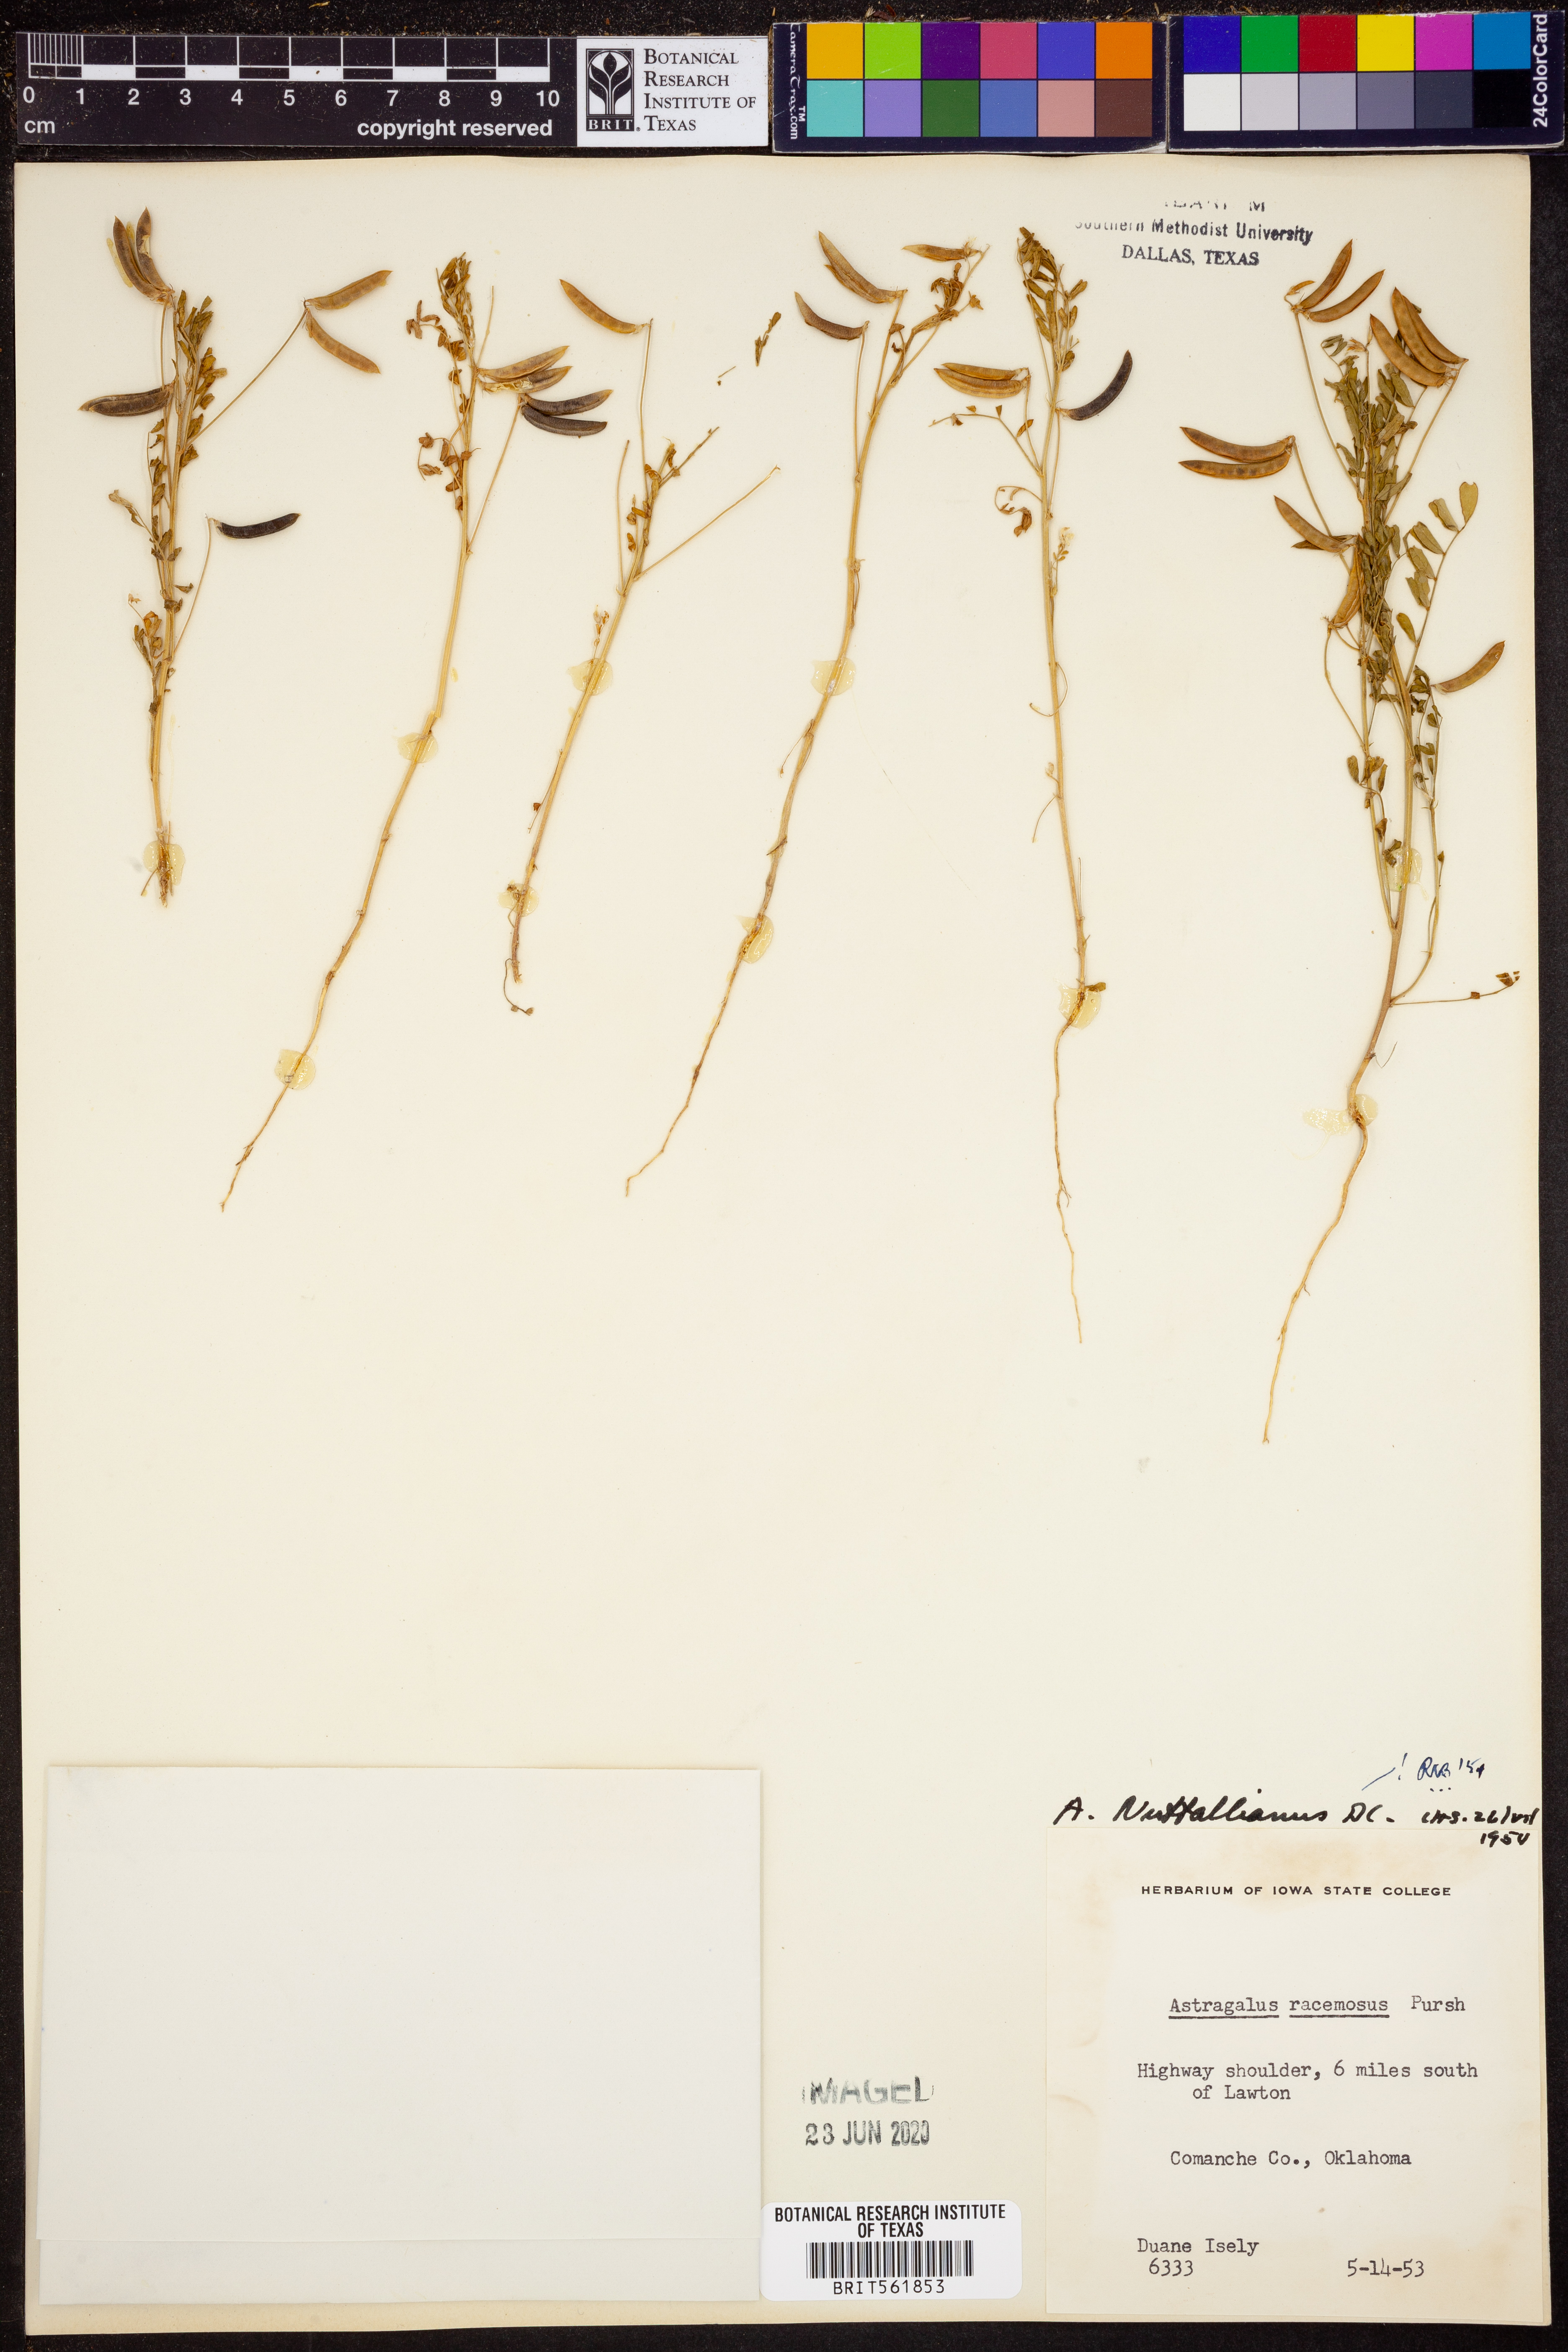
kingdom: Plantae
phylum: Tracheophyta
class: Magnoliopsida
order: Fabales
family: Fabaceae
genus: Astragalus
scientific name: Astragalus nuttallianus
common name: Smallflowered milkvetch
